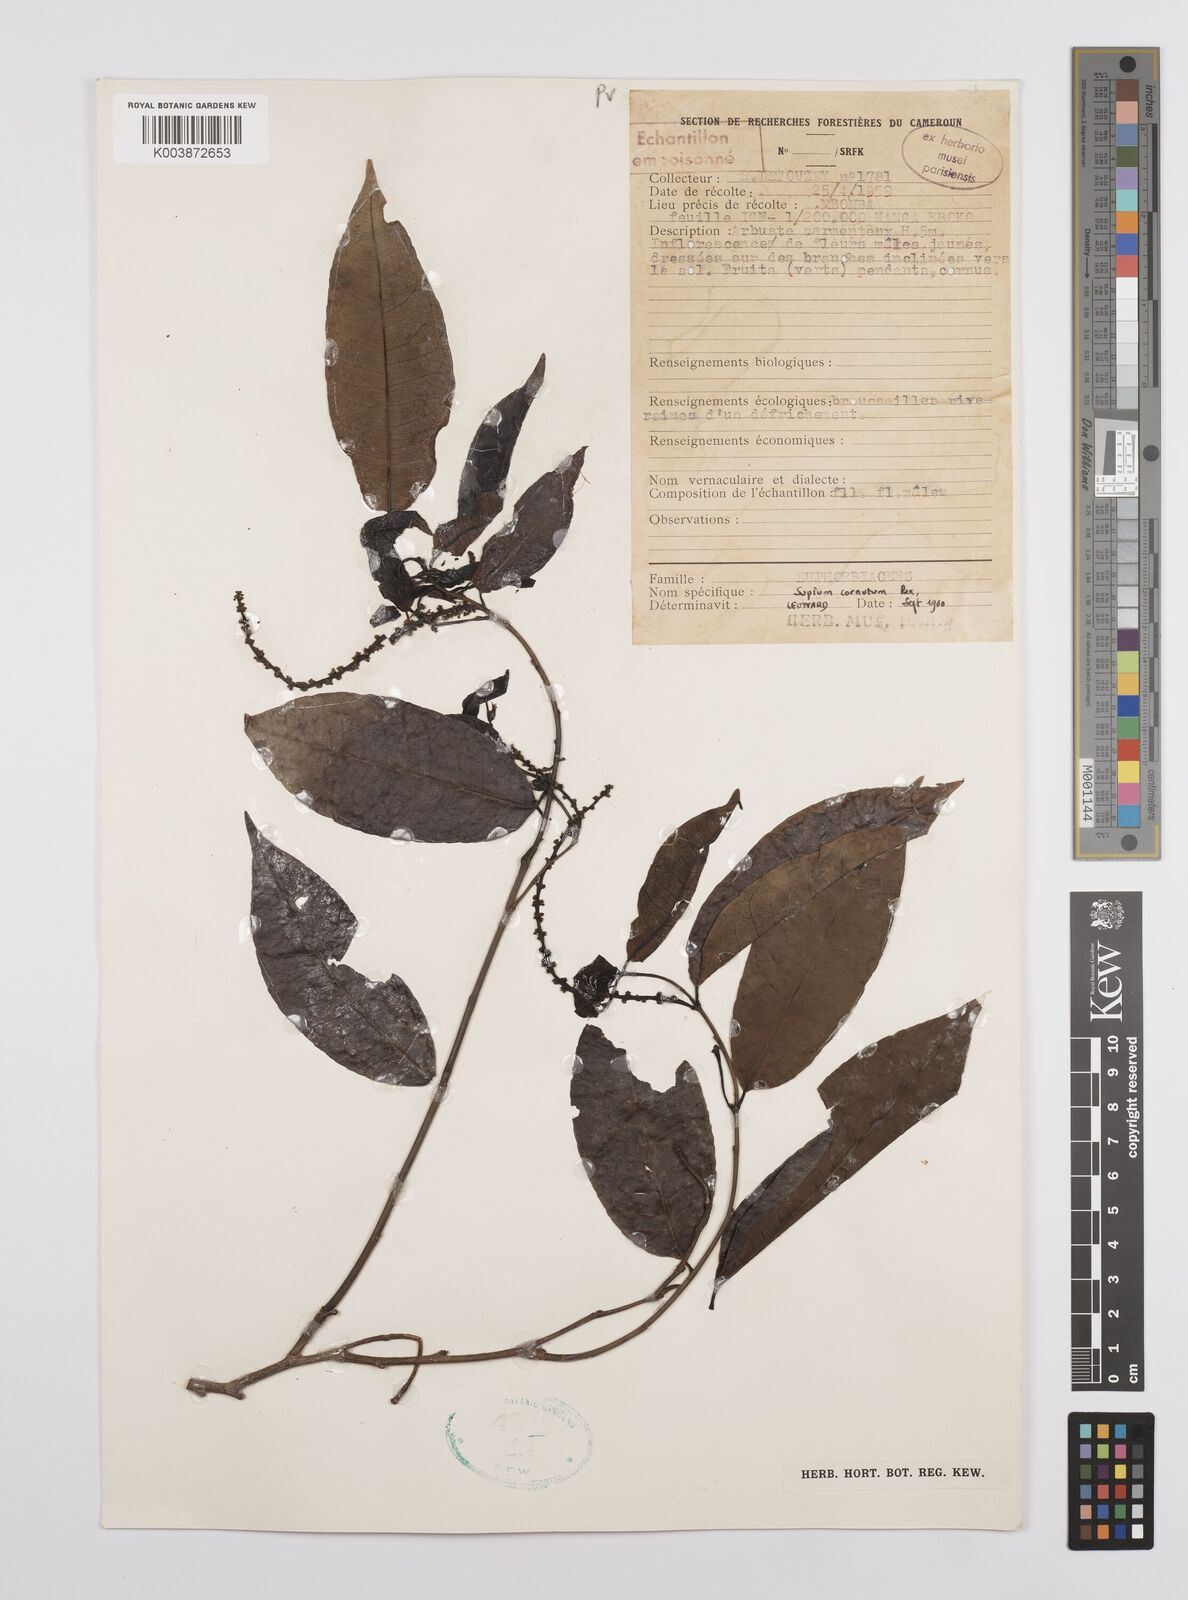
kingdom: Plantae
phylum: Tracheophyta
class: Magnoliopsida
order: Malpighiales
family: Euphorbiaceae
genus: Sclerocroton
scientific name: Sclerocroton cornutus
